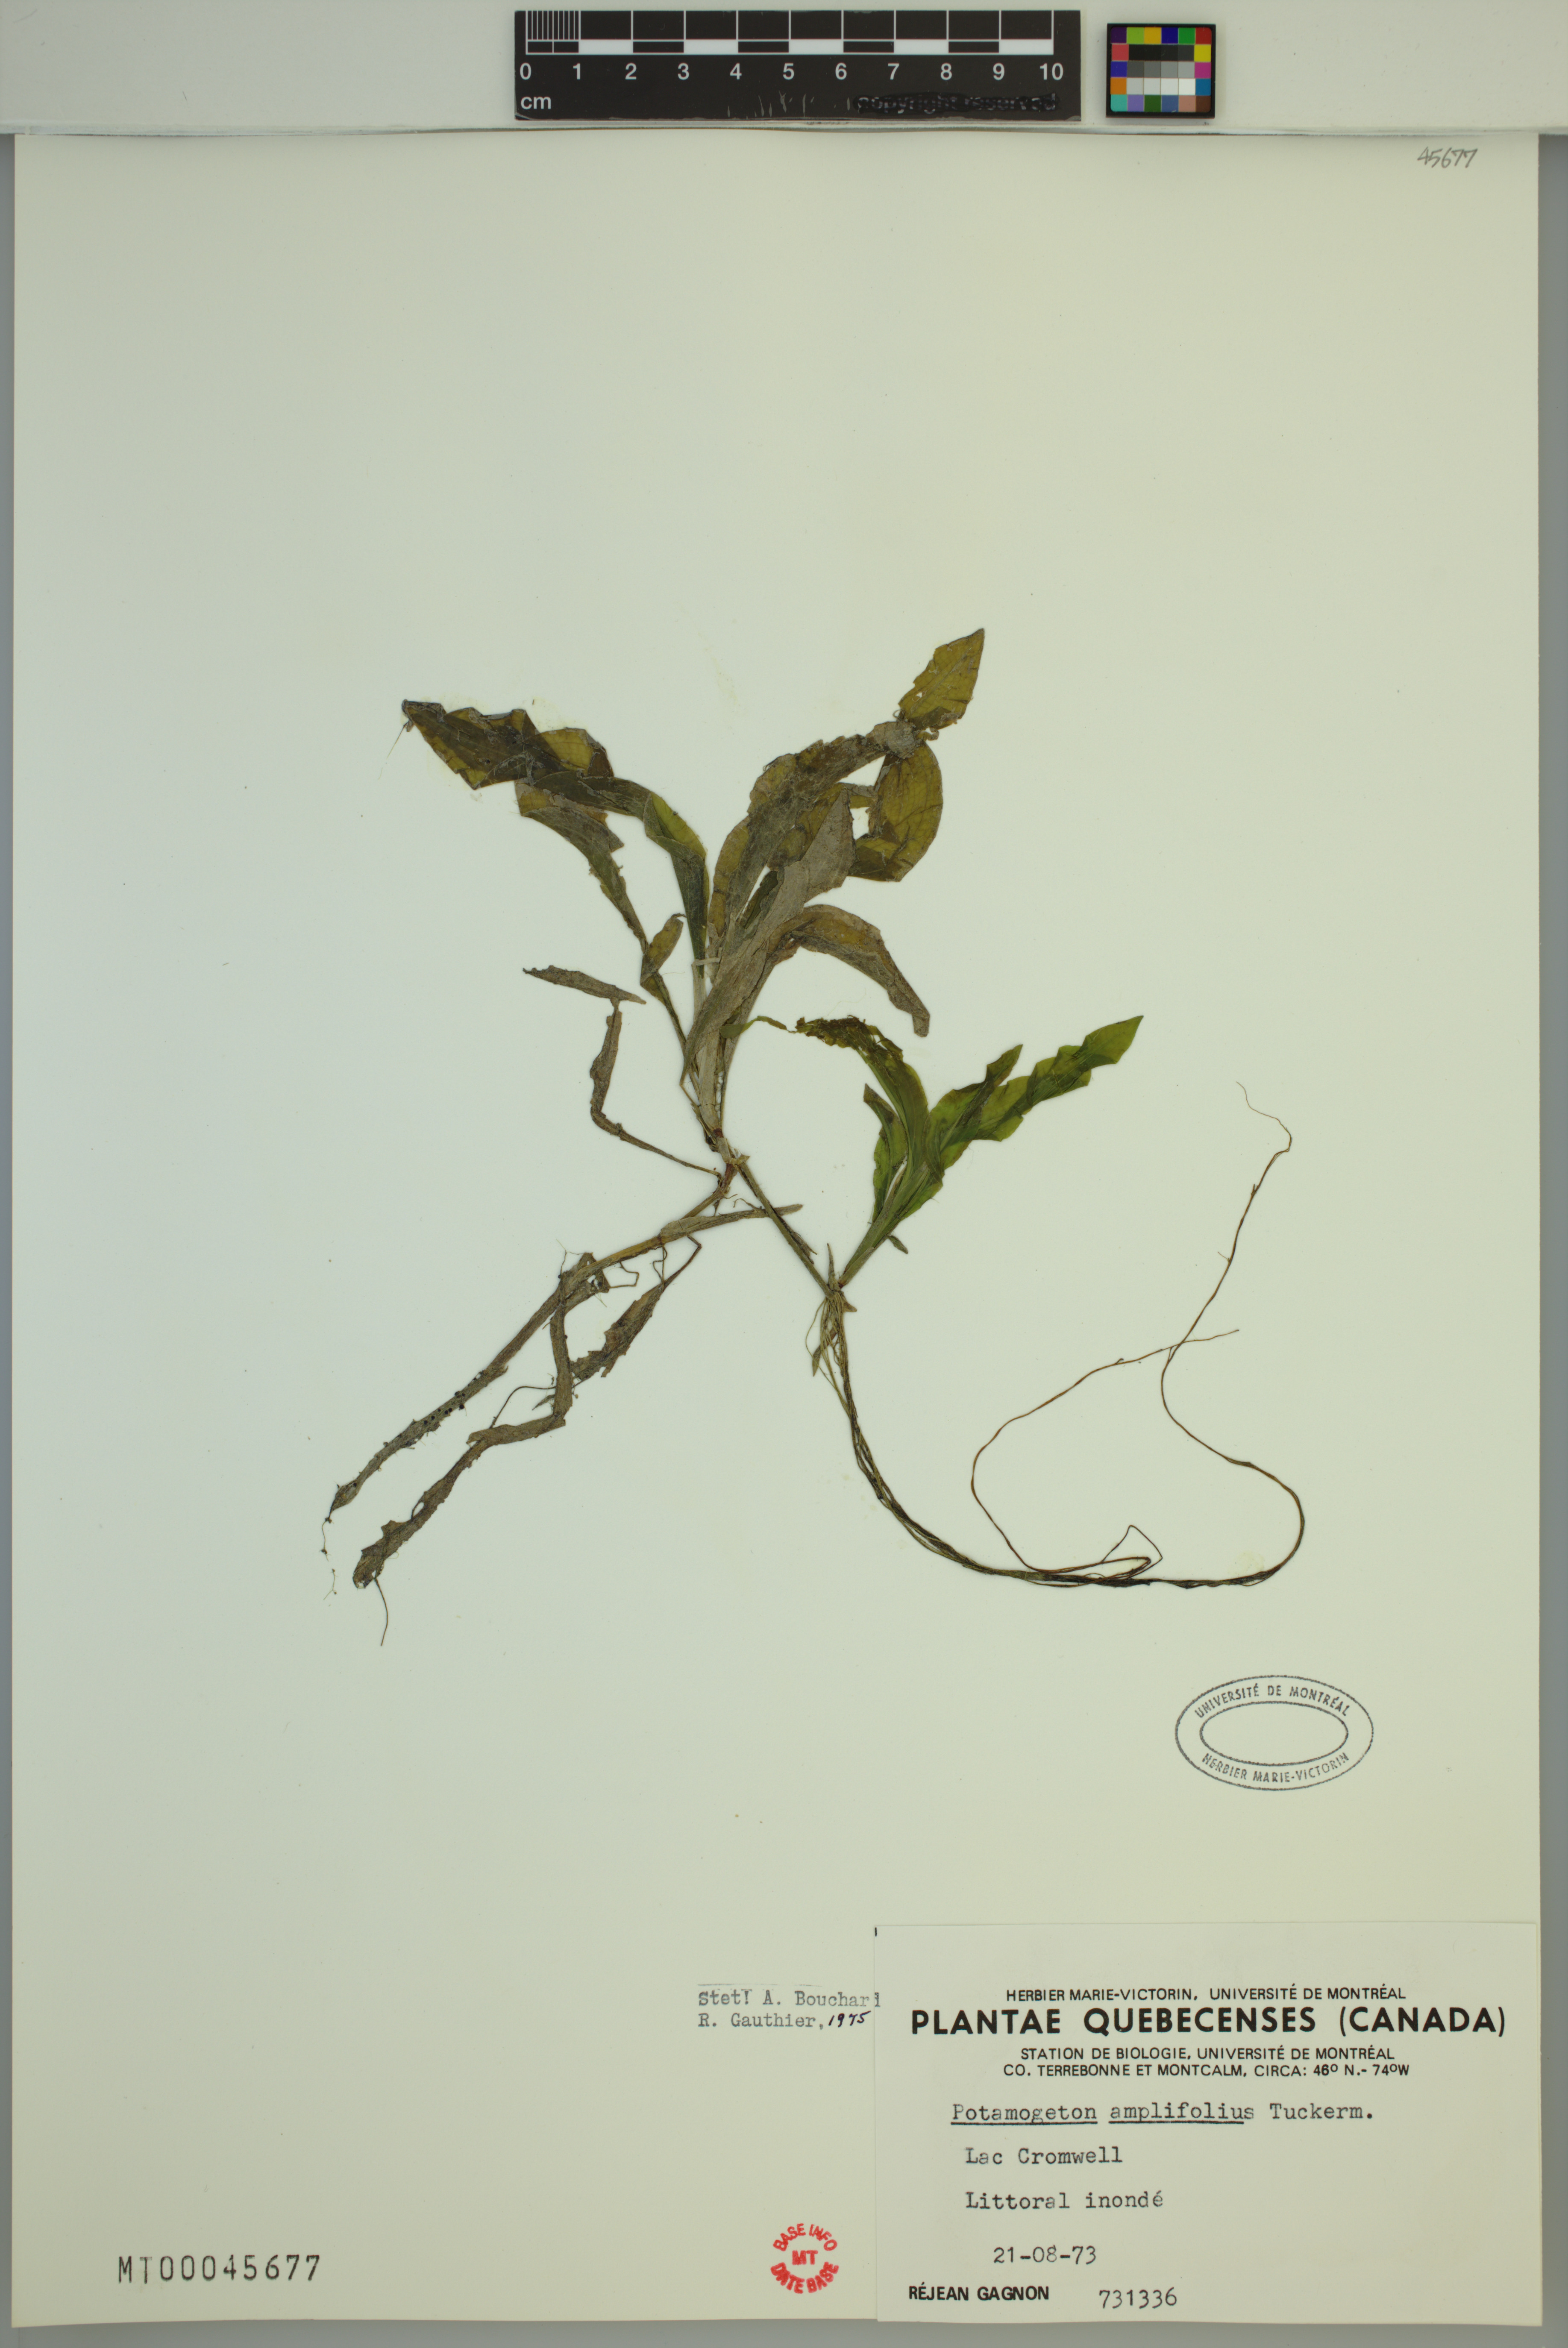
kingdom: Plantae
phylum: Tracheophyta
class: Liliopsida
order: Alismatales
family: Potamogetonaceae
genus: Potamogeton
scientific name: Potamogeton amplifolius
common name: Broad-leaved pondweed
